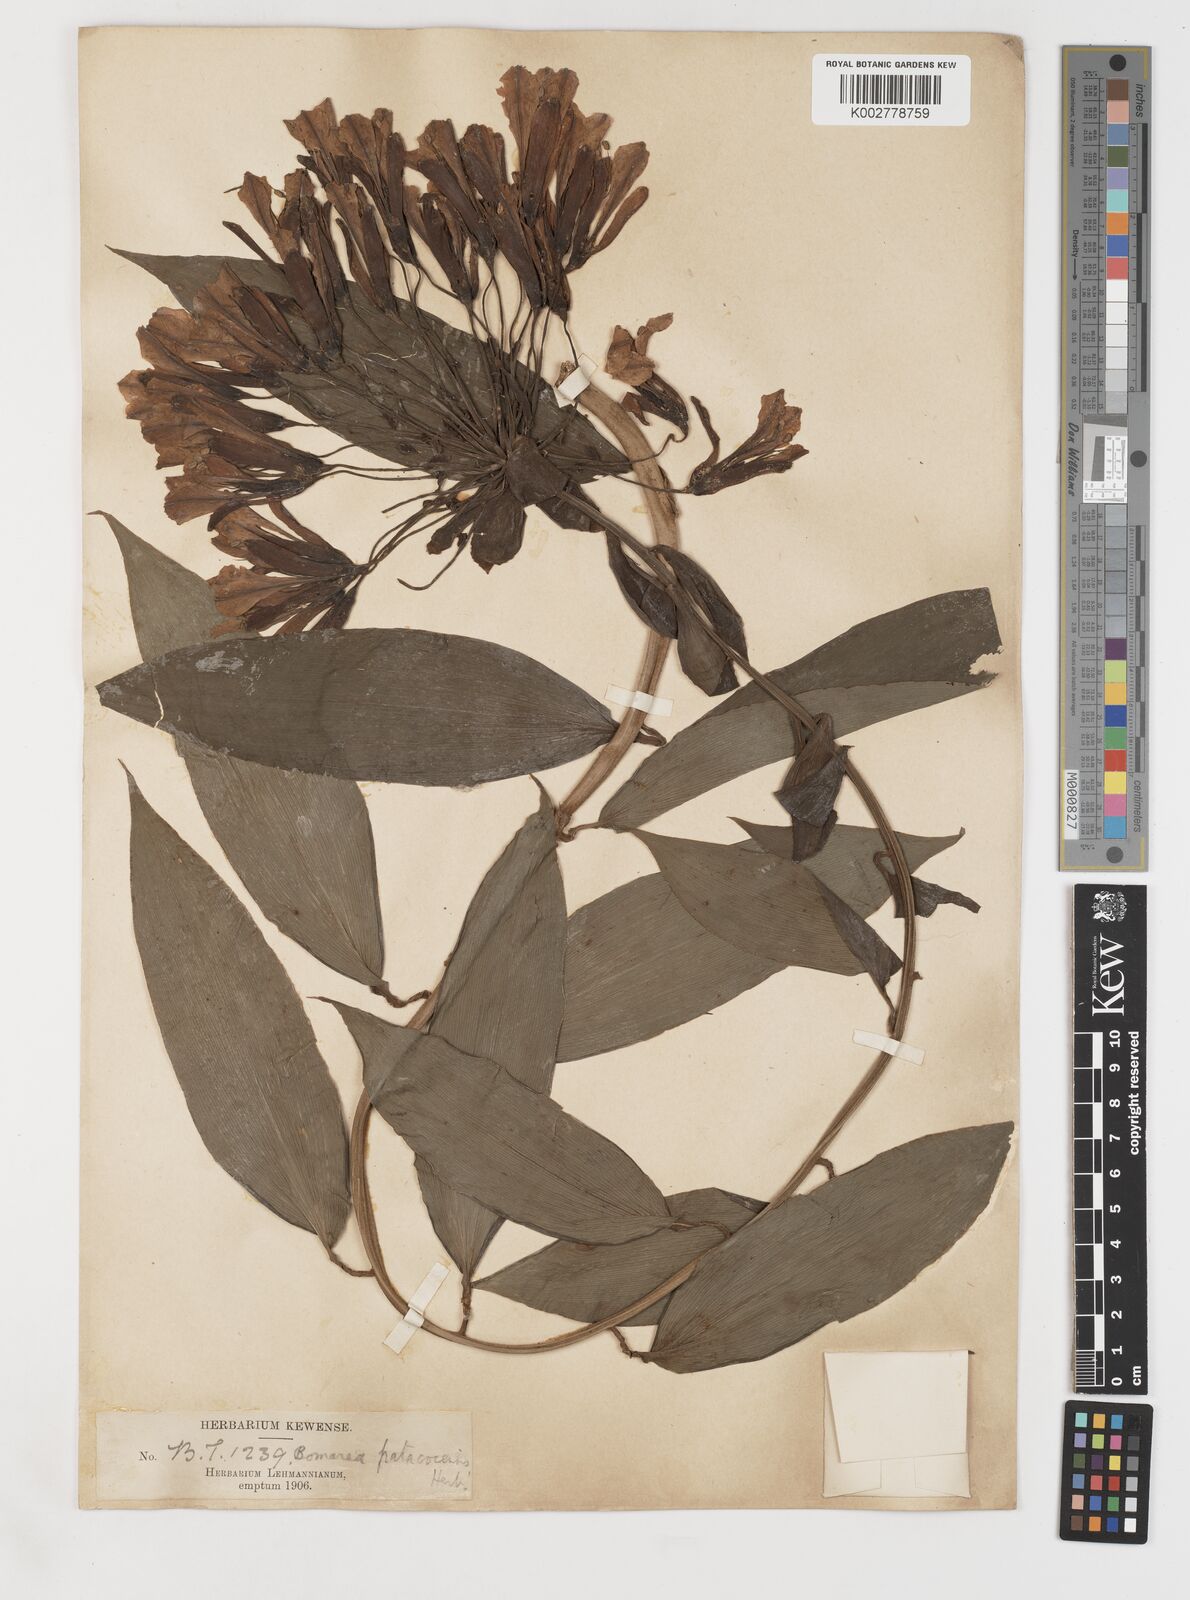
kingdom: Plantae
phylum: Tracheophyta
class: Liliopsida
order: Liliales
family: Alstroemeriaceae
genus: Bomarea
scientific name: Bomarea andreana
